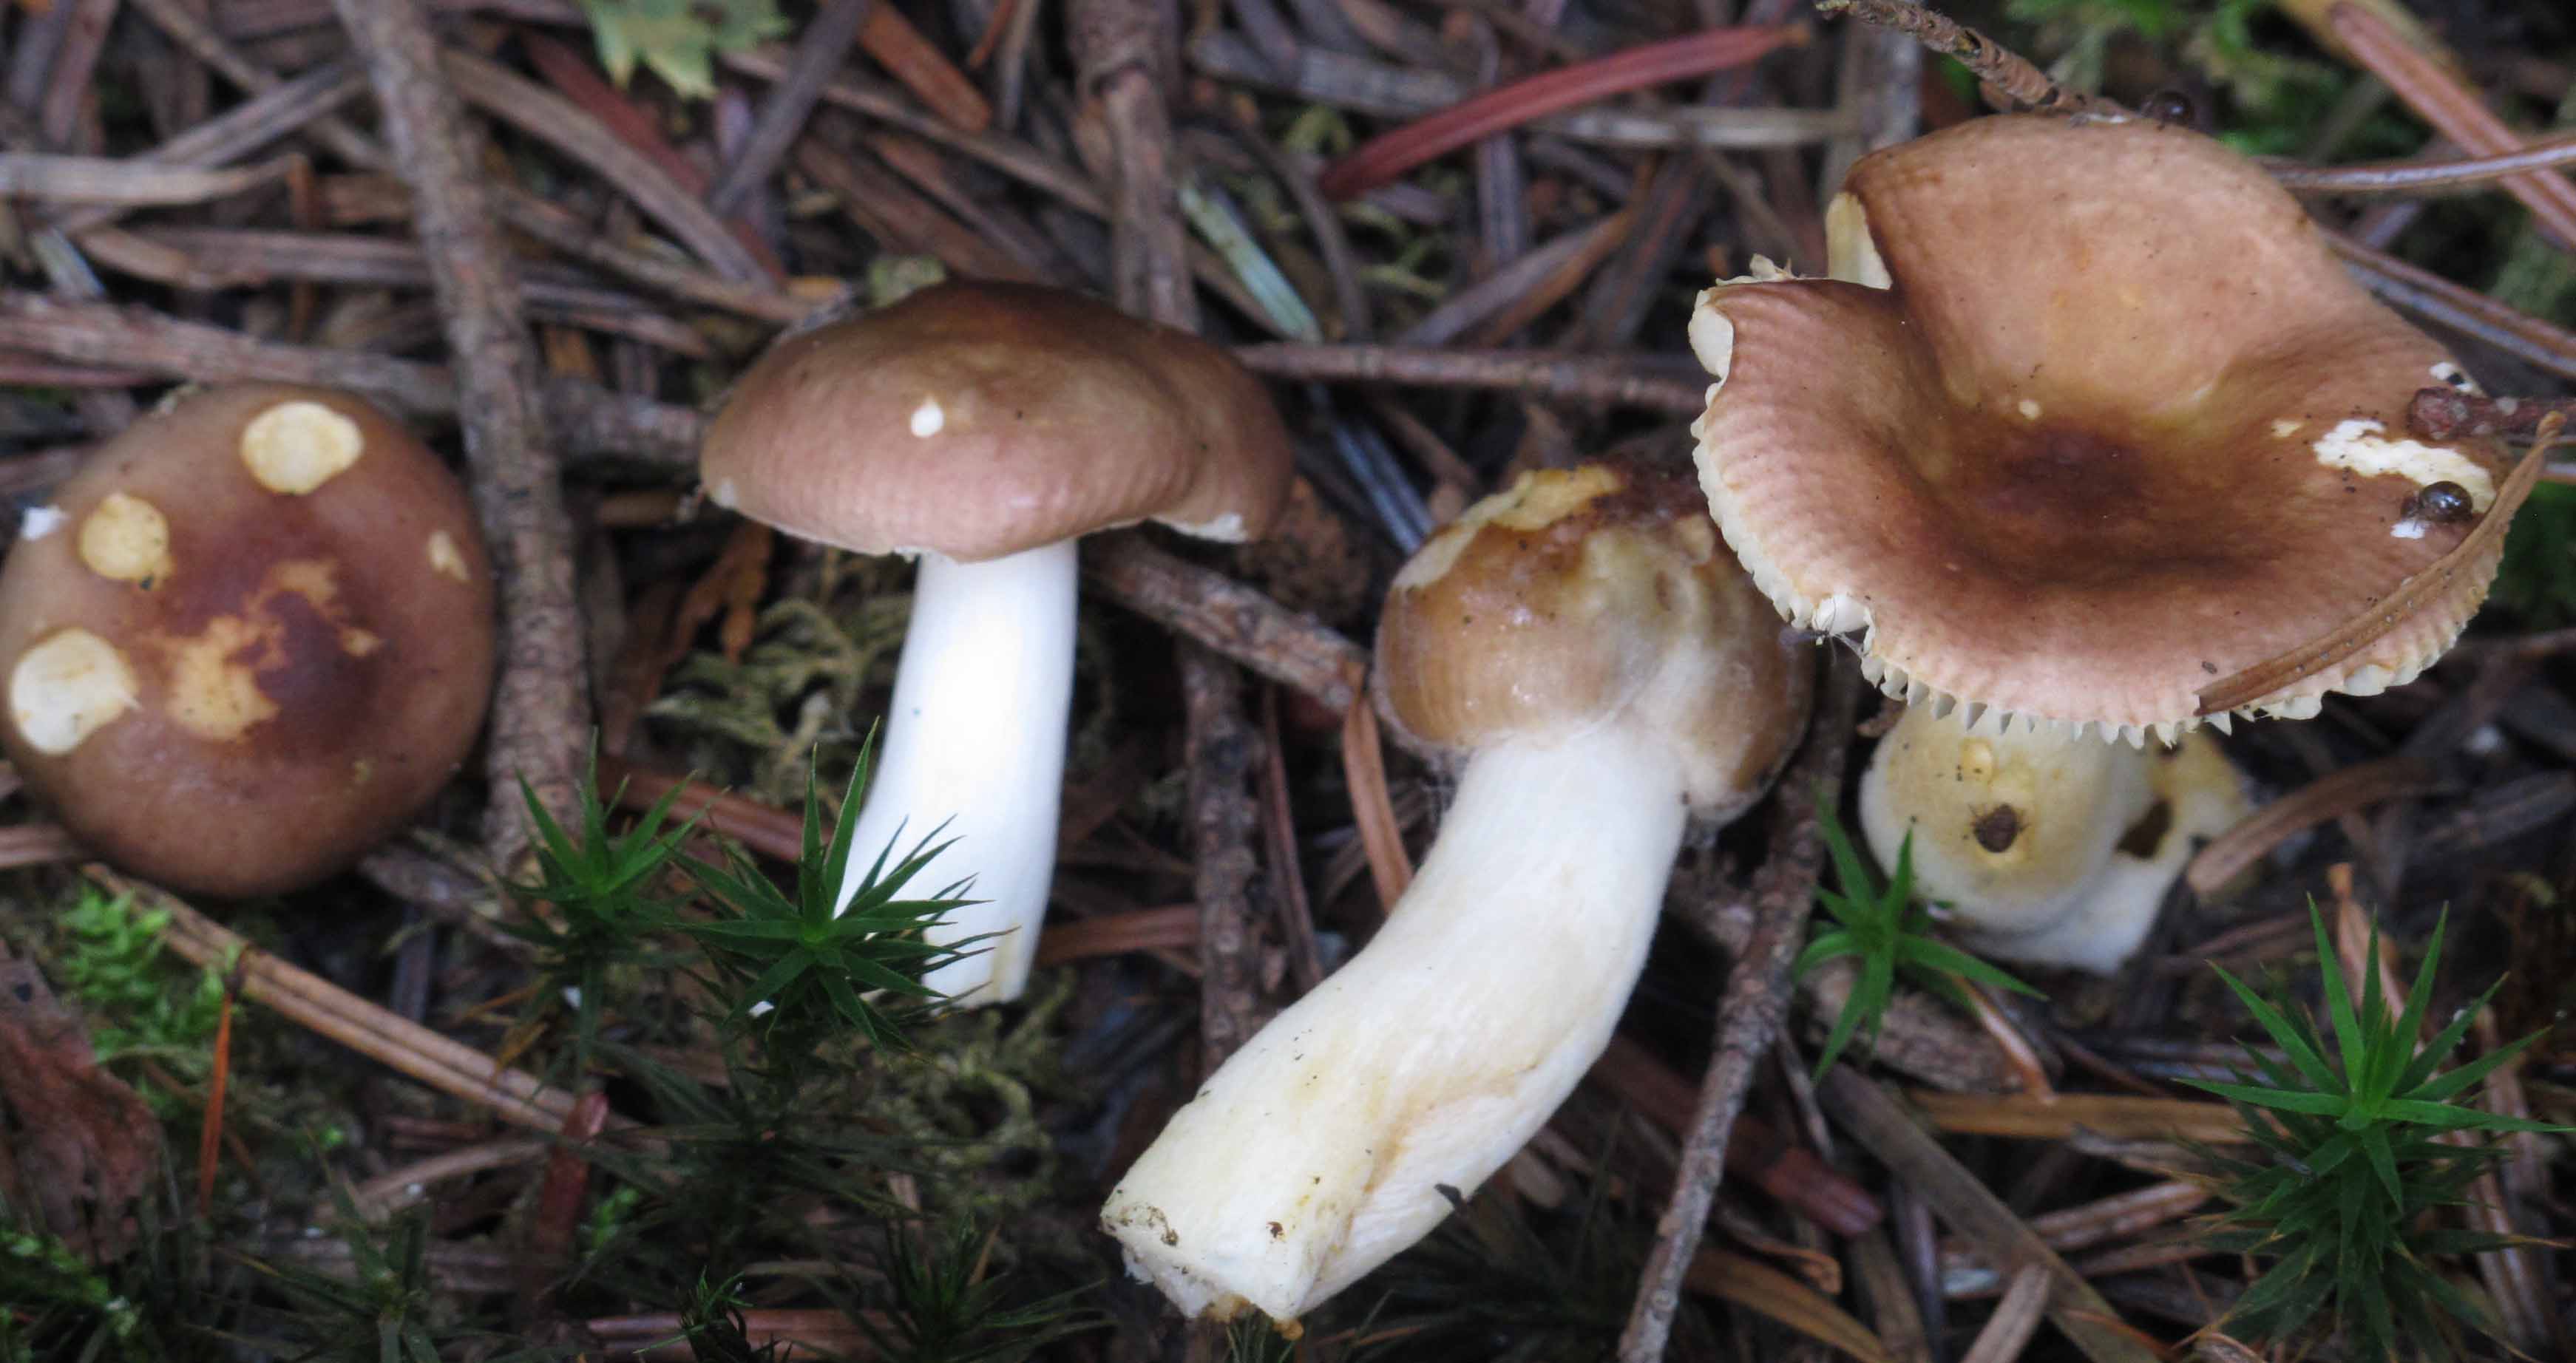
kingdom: Fungi
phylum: Basidiomycota
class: Agaricomycetes
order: Russulales
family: Russulaceae
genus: Russula
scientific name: Russula puellaris
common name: gulstokket skørhat
